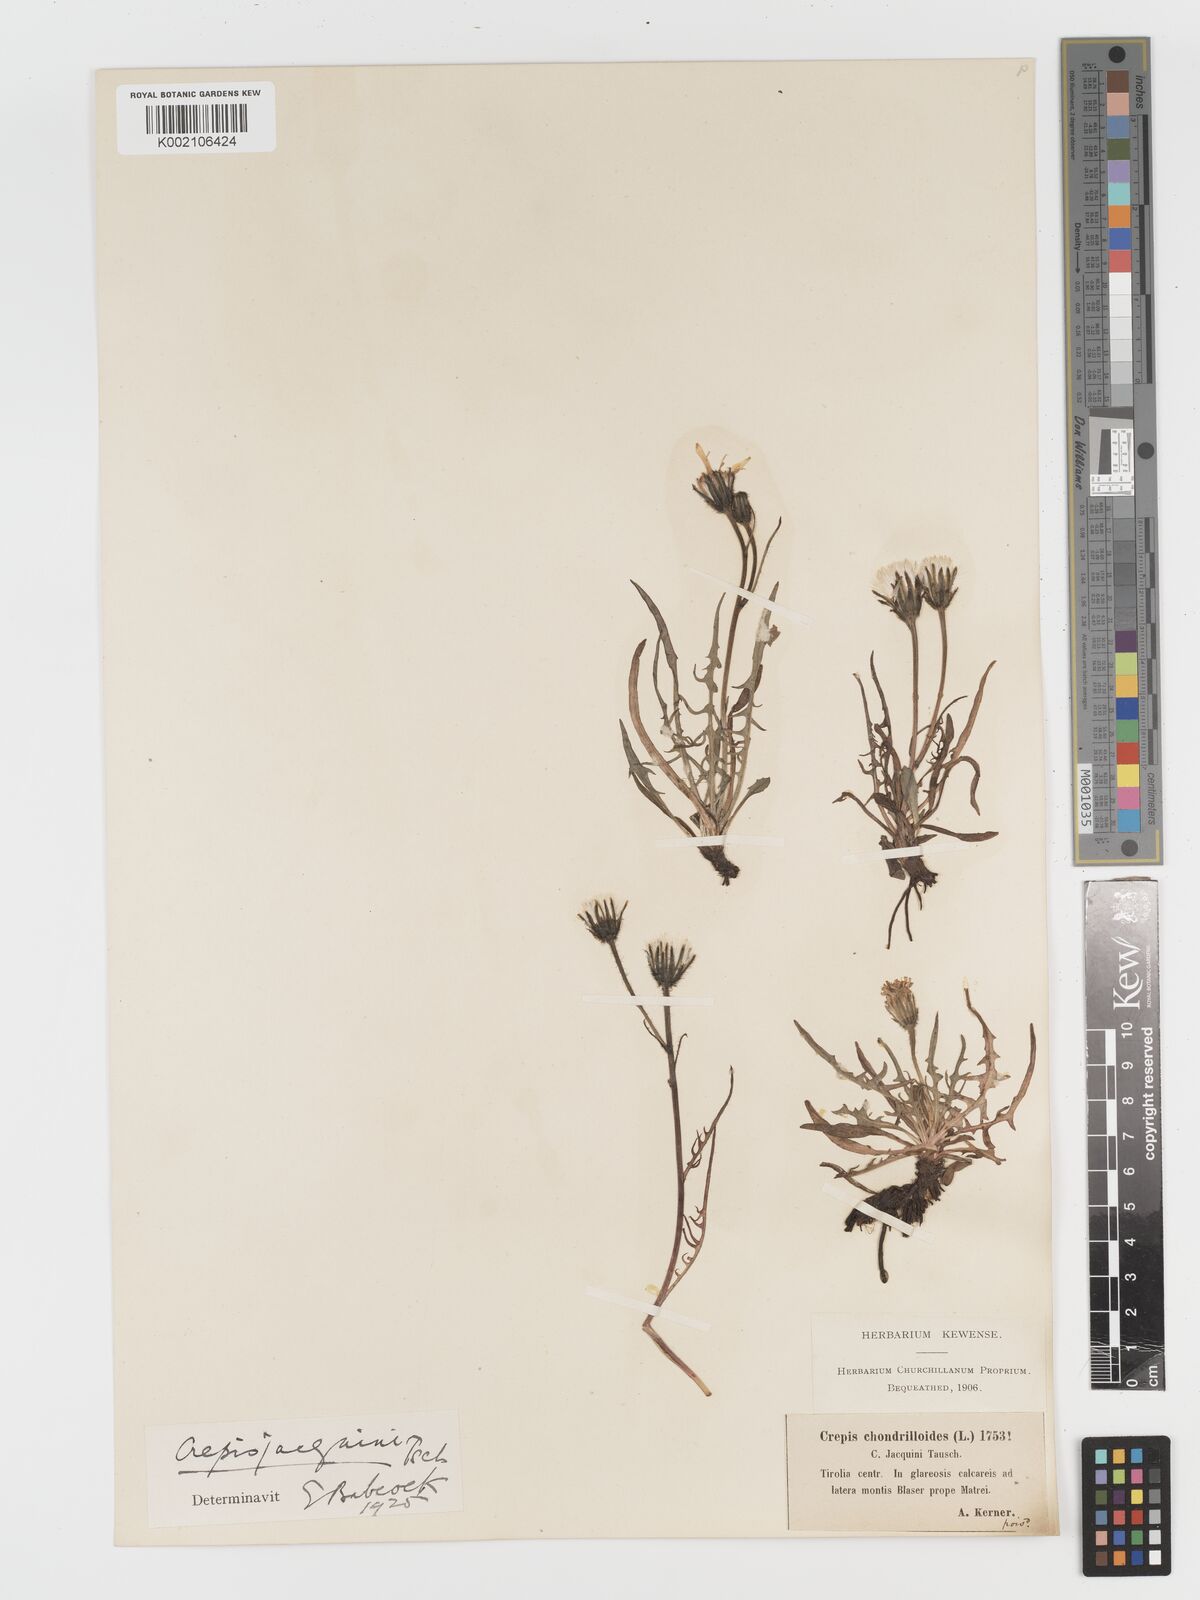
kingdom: Plantae
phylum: Tracheophyta
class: Magnoliopsida
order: Asterales
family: Asteraceae
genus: Crepis
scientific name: Crepis jacquinii
